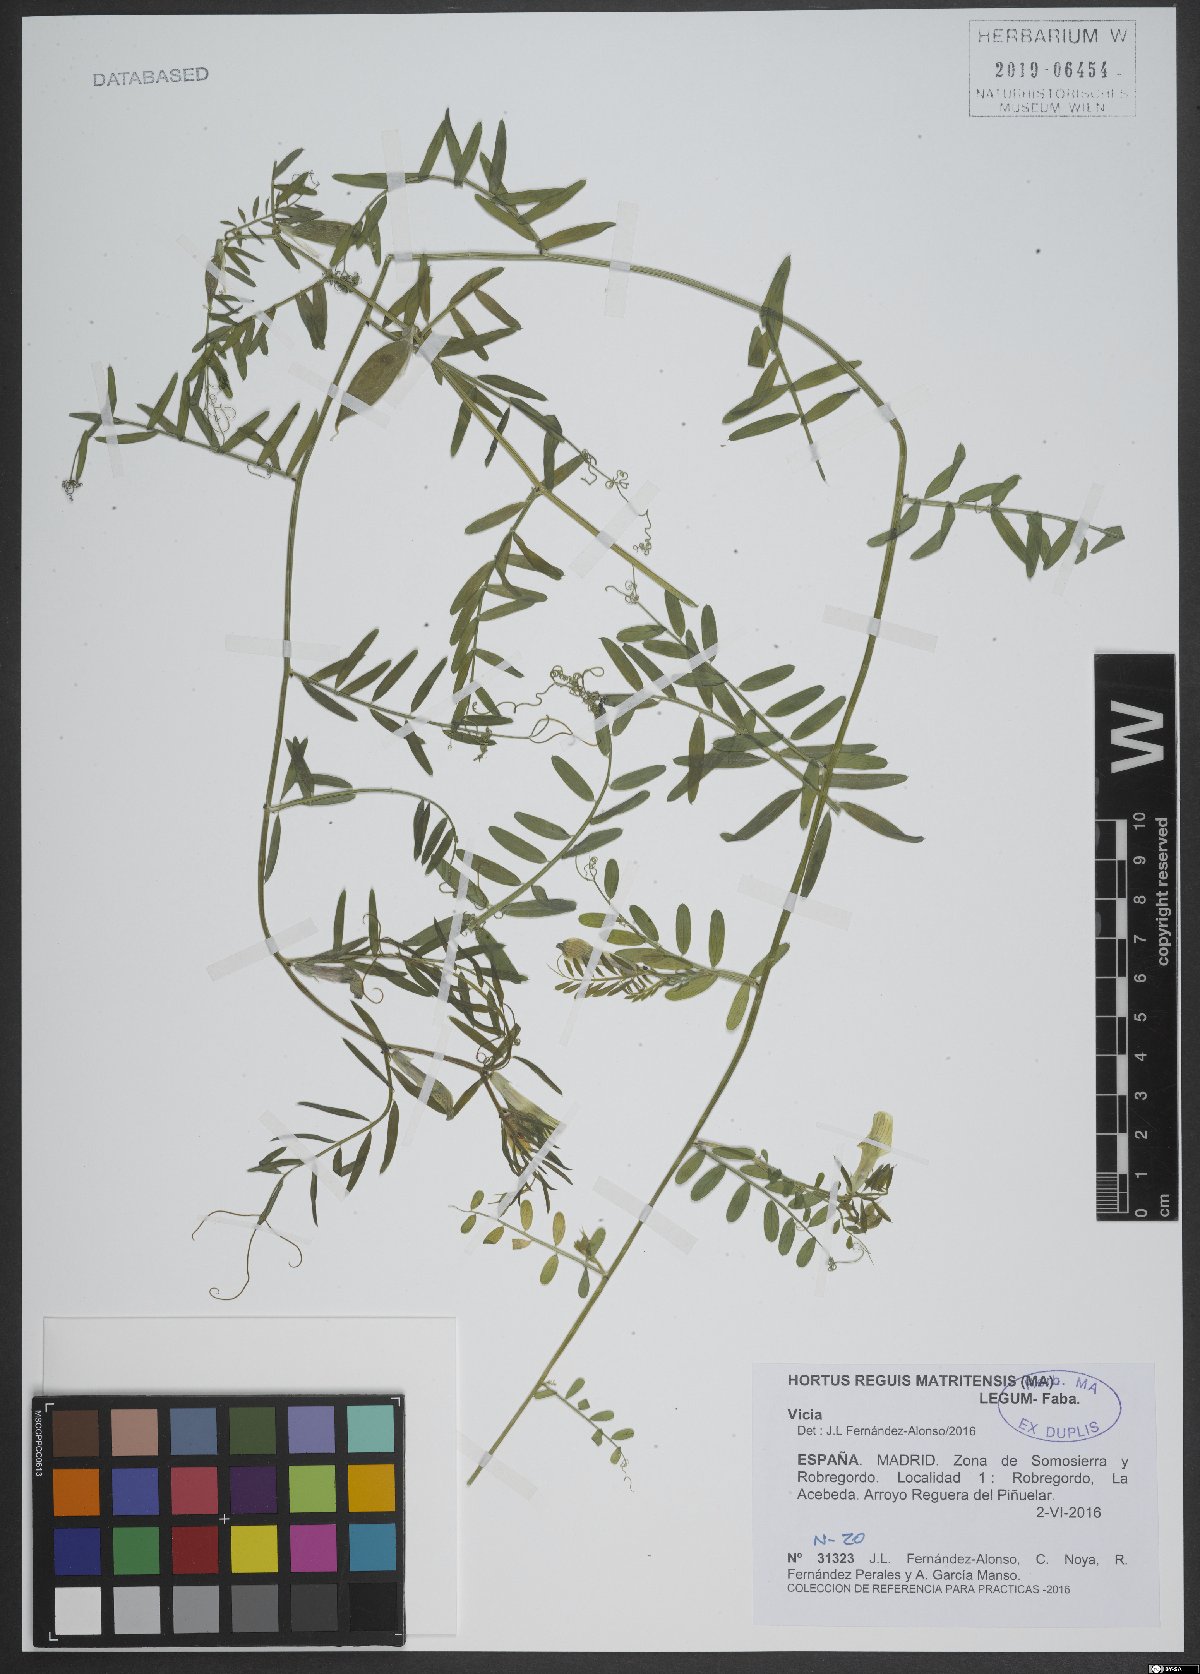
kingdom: Plantae
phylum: Tracheophyta
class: Magnoliopsida
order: Fabales
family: Fabaceae
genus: Vicia
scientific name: Vicia
